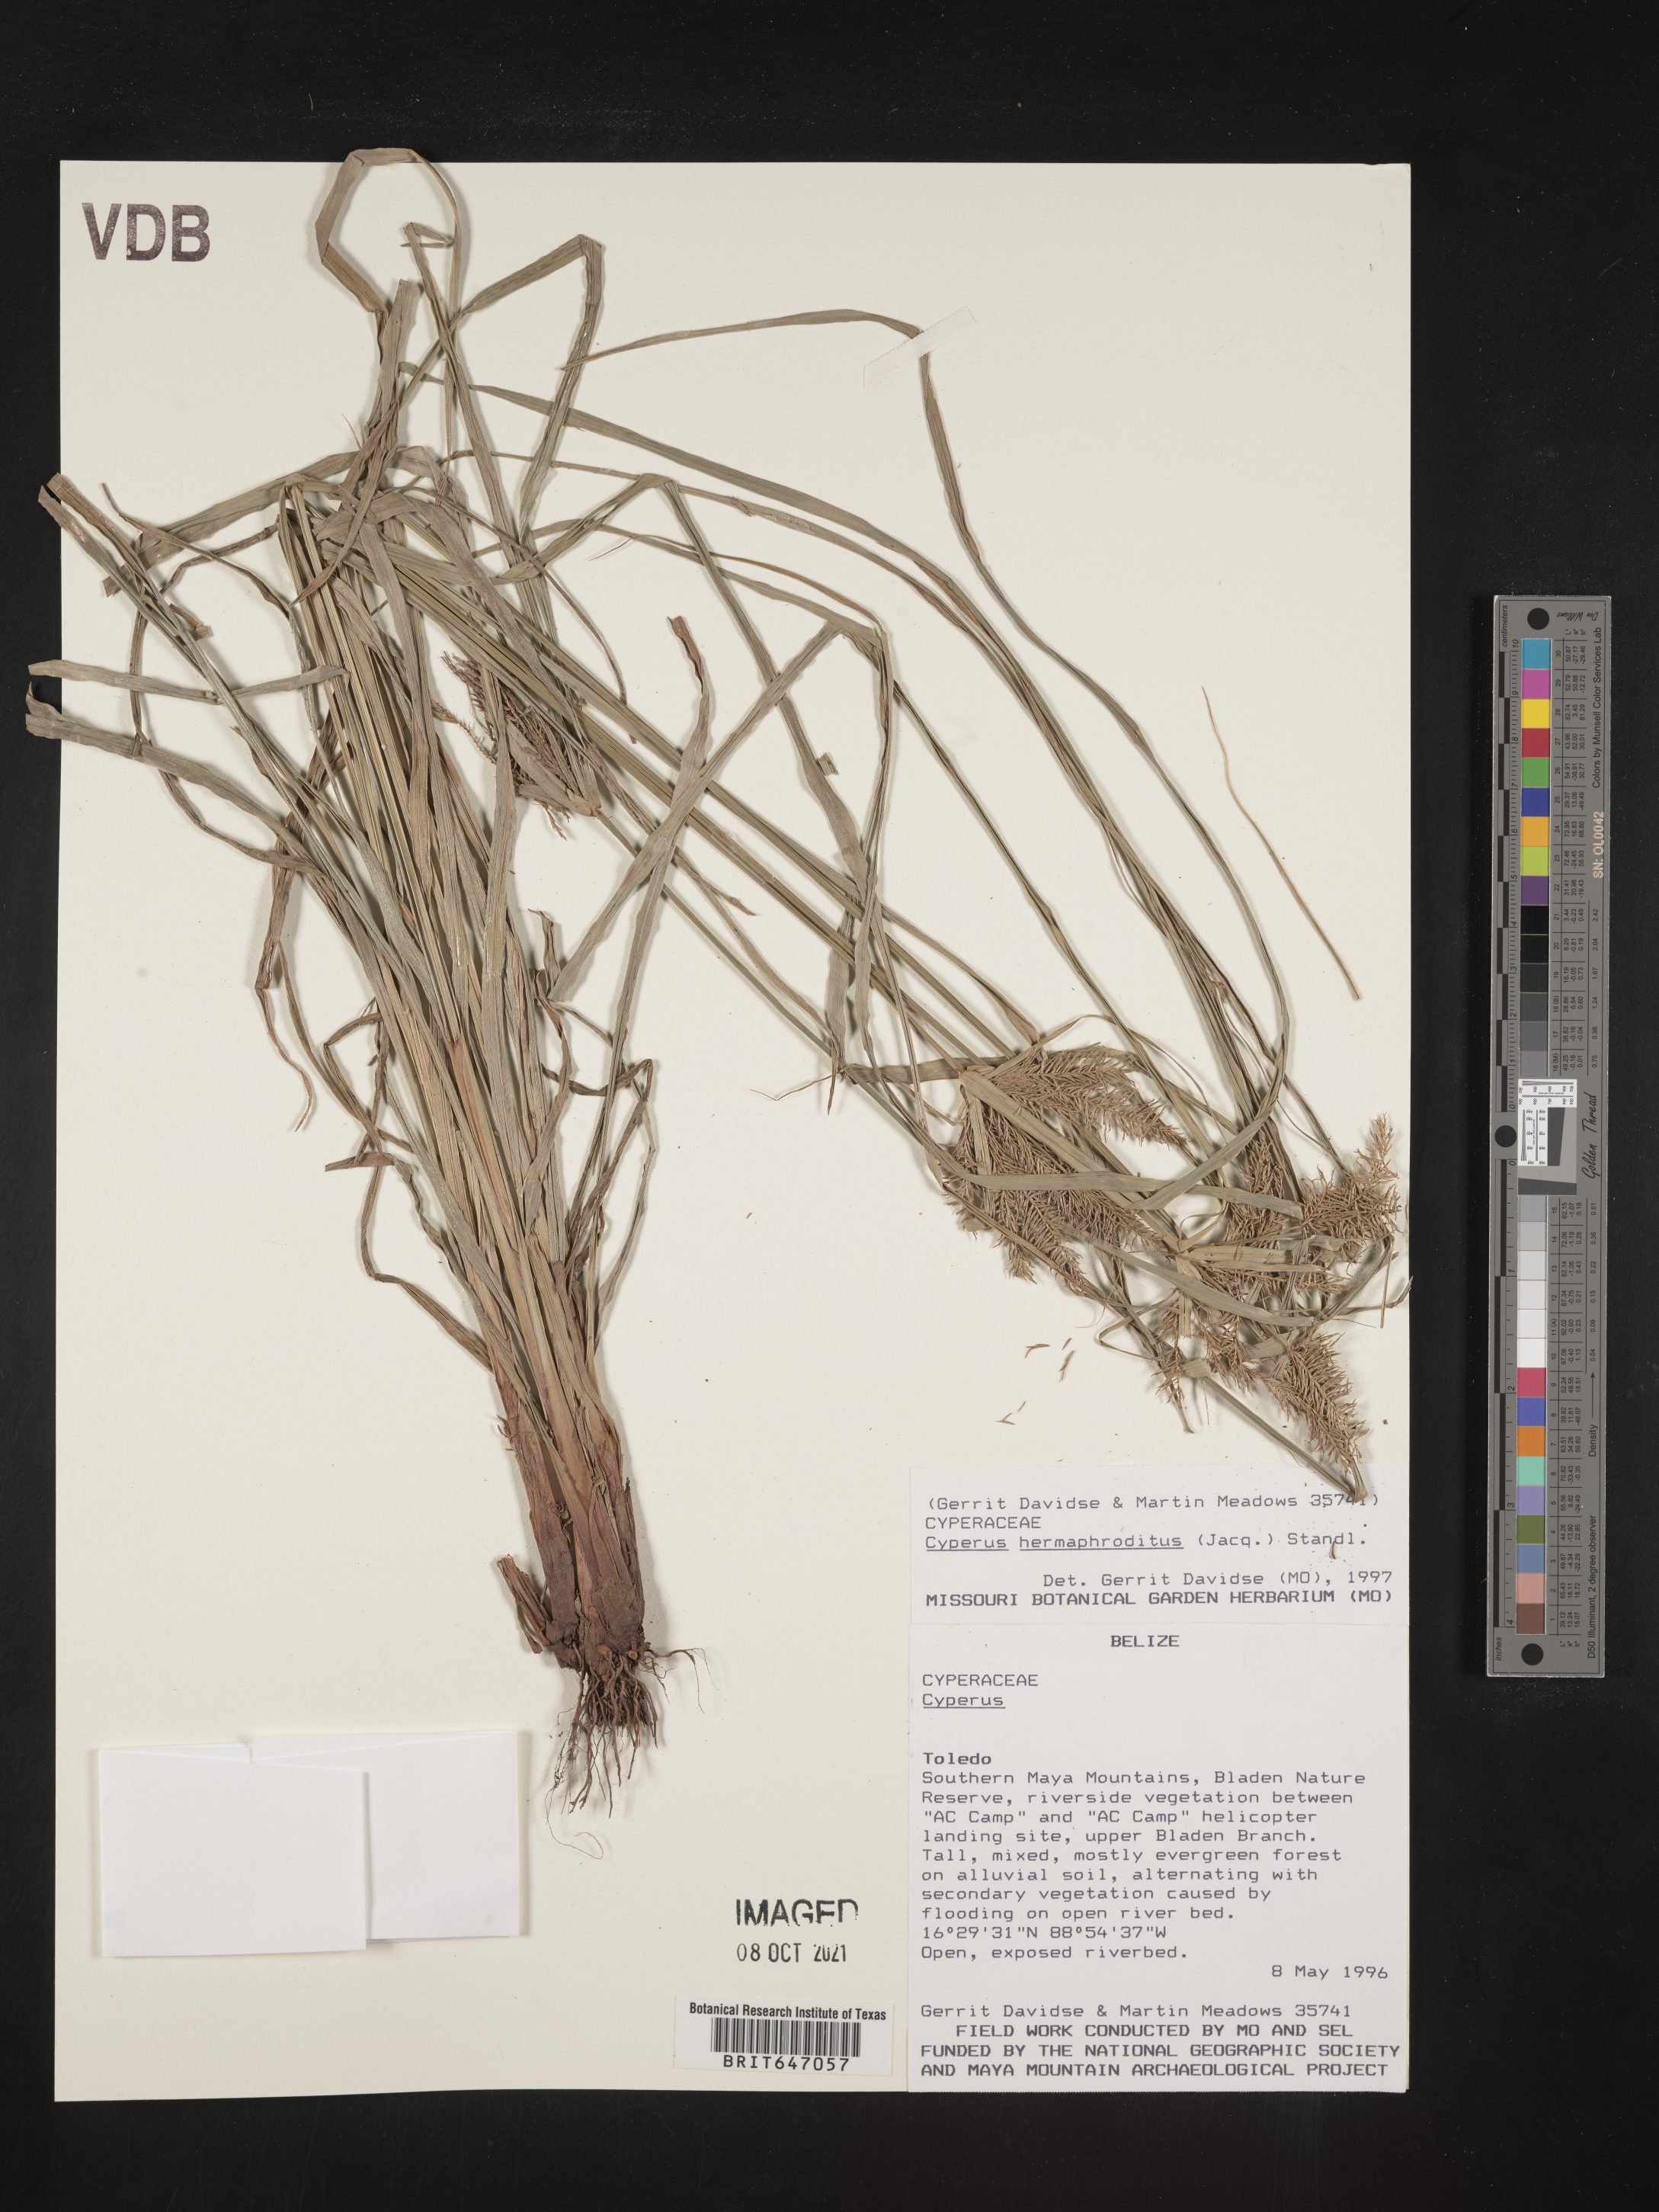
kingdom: Plantae
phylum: Tracheophyta
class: Liliopsida
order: Poales
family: Cyperaceae
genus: Cyperus
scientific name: Cyperus hermaphroditus
